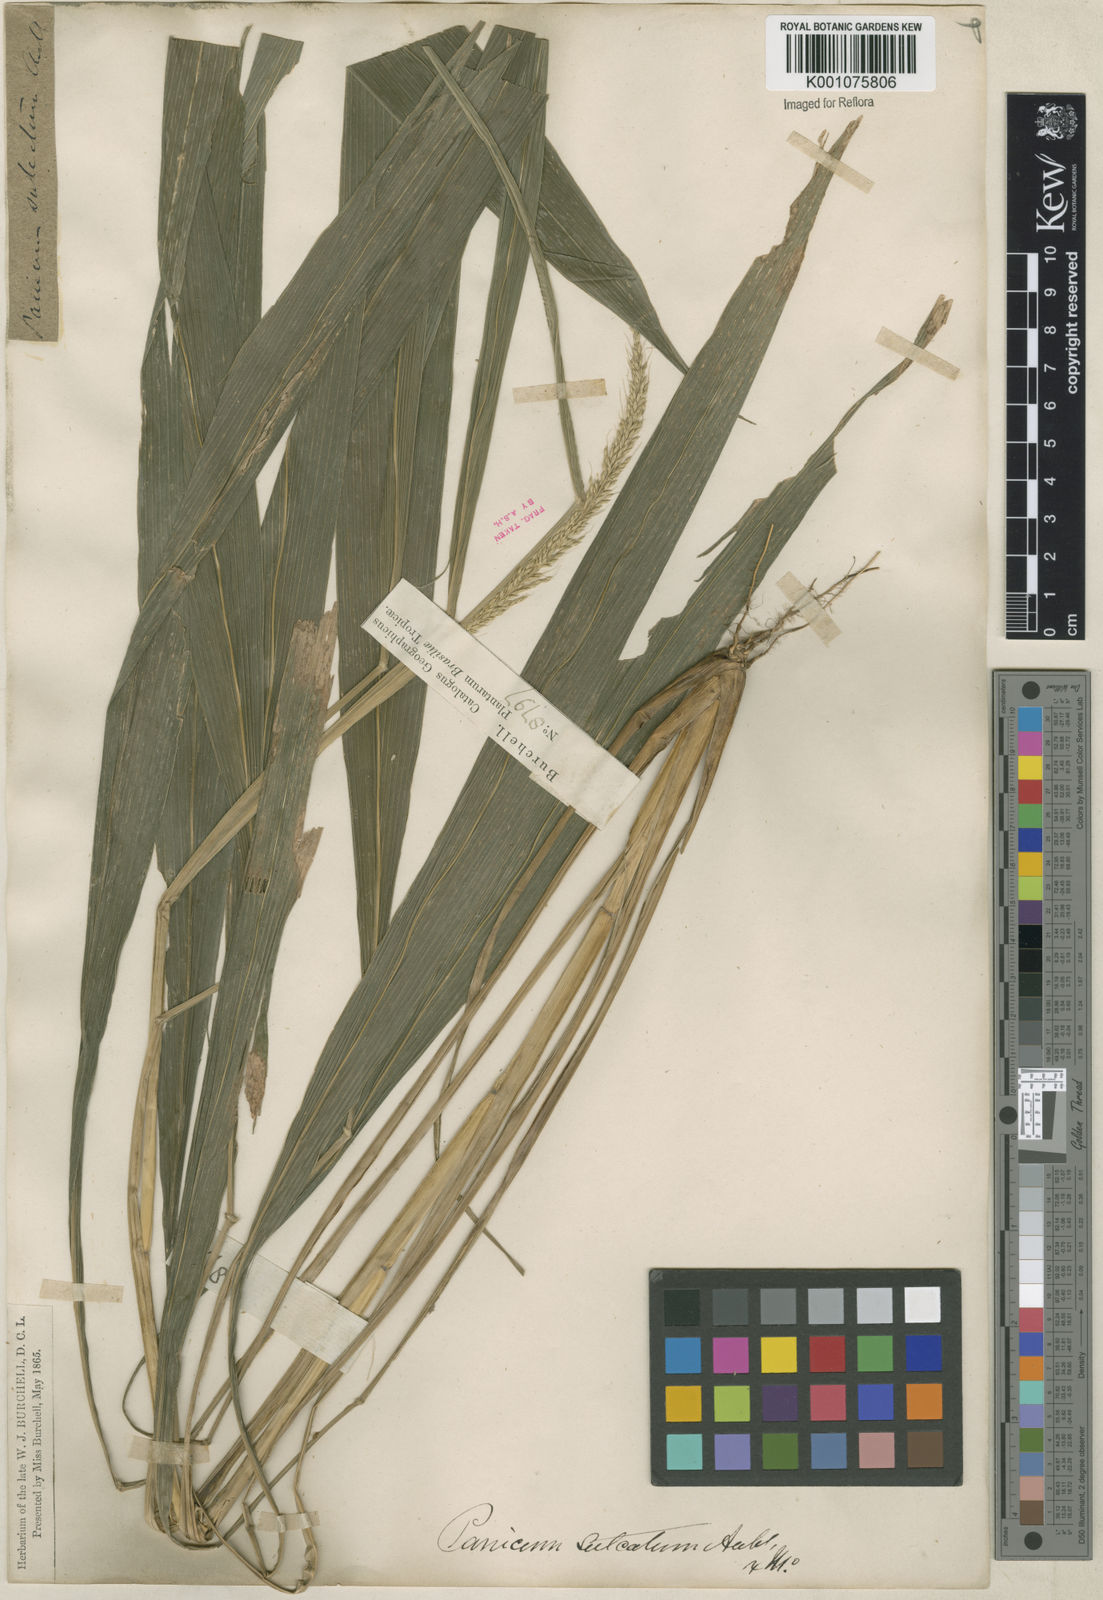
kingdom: Plantae
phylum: Tracheophyta
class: Liliopsida
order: Poales
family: Poaceae
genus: Setaria
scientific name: Setaria megaphylla
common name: Bigleaf bristlegrass
